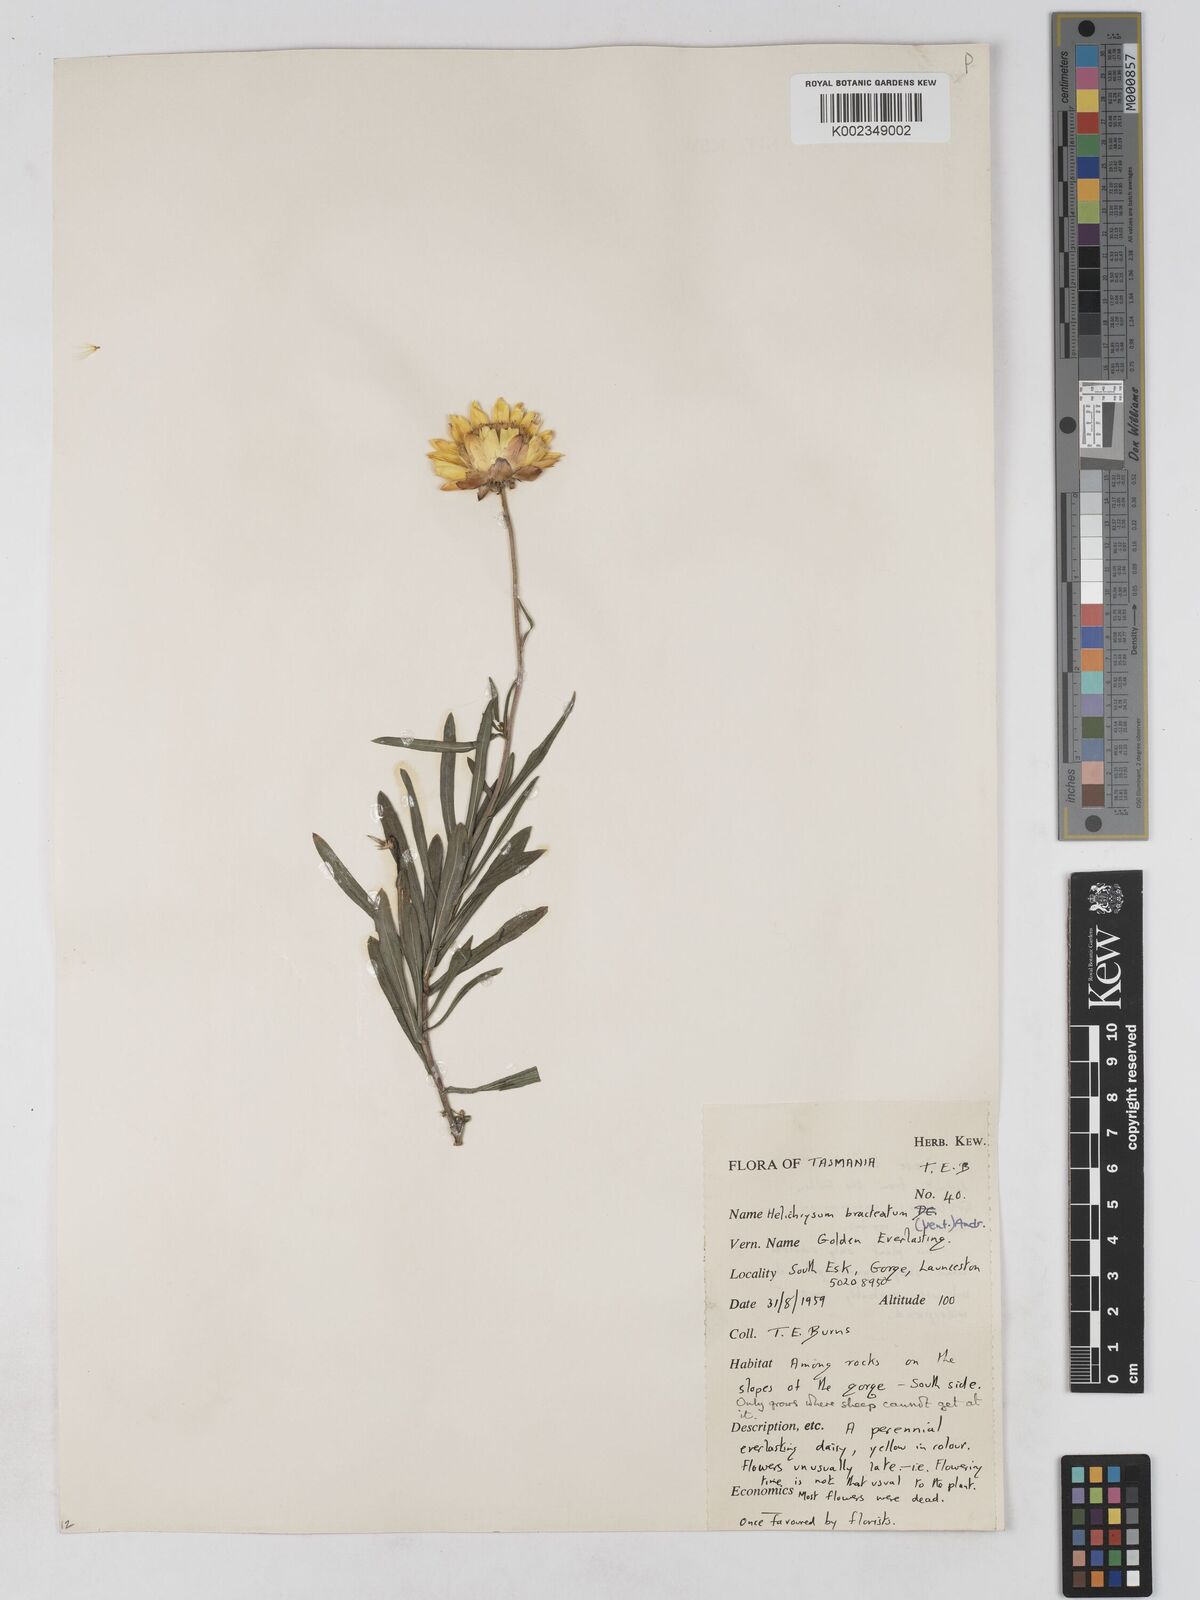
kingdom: Plantae
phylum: Tracheophyta
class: Magnoliopsida
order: Asterales
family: Asteraceae
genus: Xerochrysum
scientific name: Xerochrysum bracteatum
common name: Bracted strawflower
